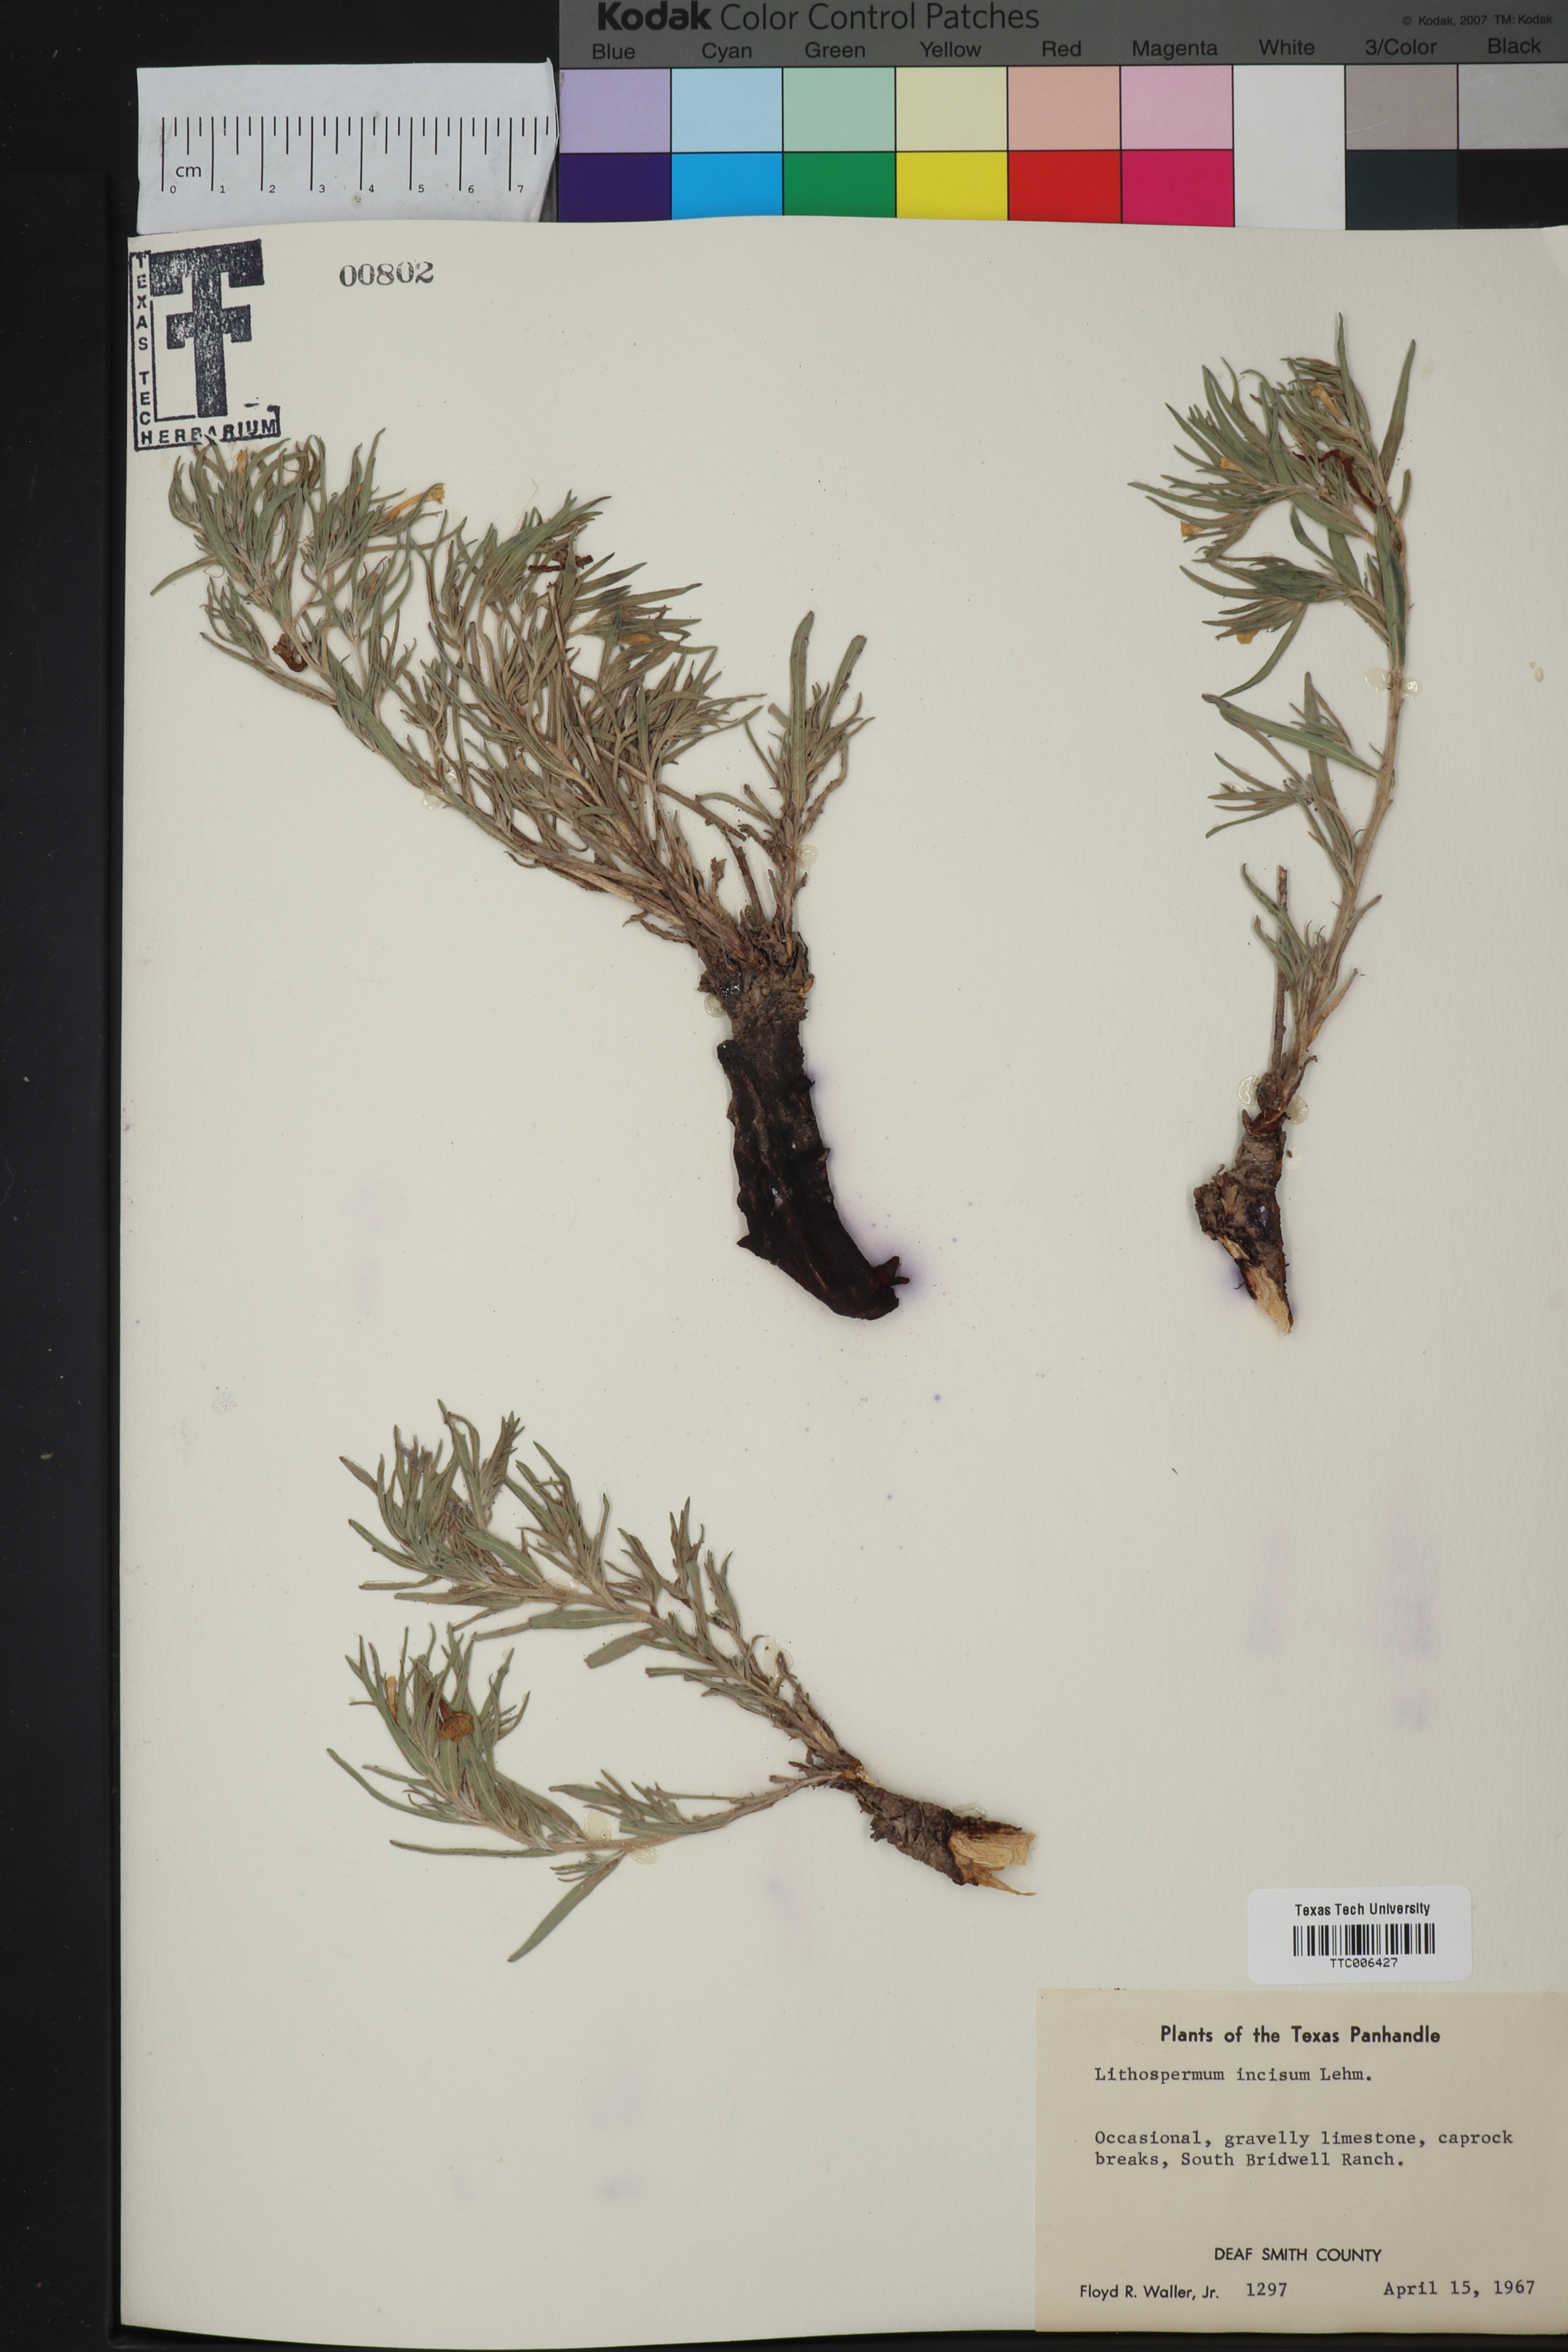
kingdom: Plantae
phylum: Tracheophyta
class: Magnoliopsida
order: Boraginales
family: Boraginaceae
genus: Lithospermum
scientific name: Lithospermum incisum
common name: Fringed gromwell
